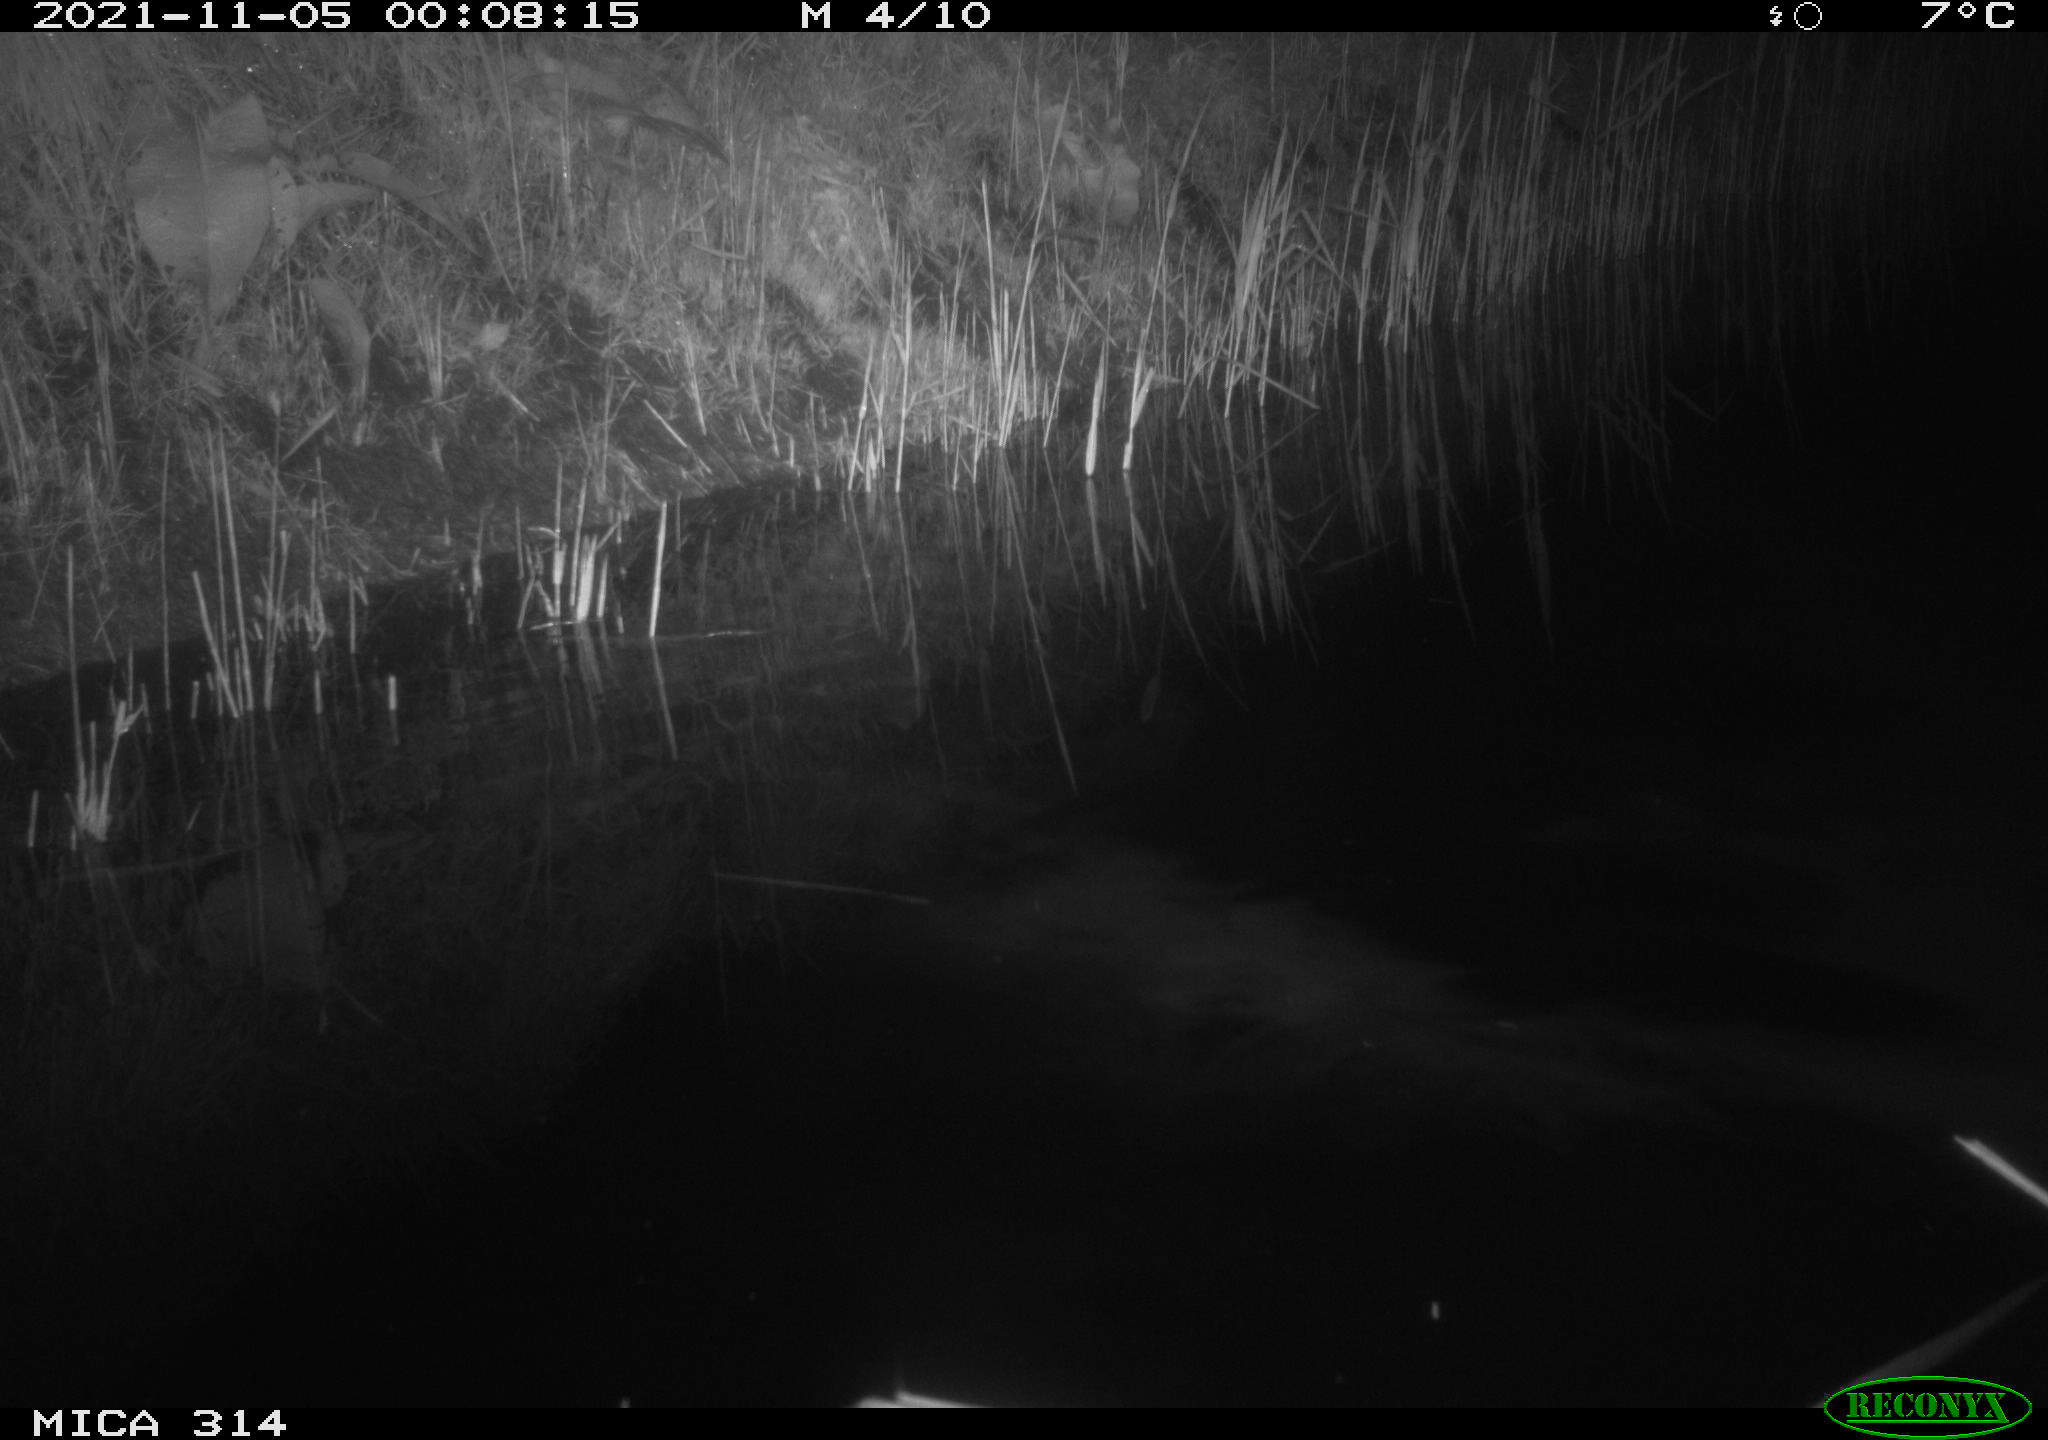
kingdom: Animalia
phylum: Chordata
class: Mammalia
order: Rodentia
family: Muridae
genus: Rattus
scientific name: Rattus norvegicus
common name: Brown rat
